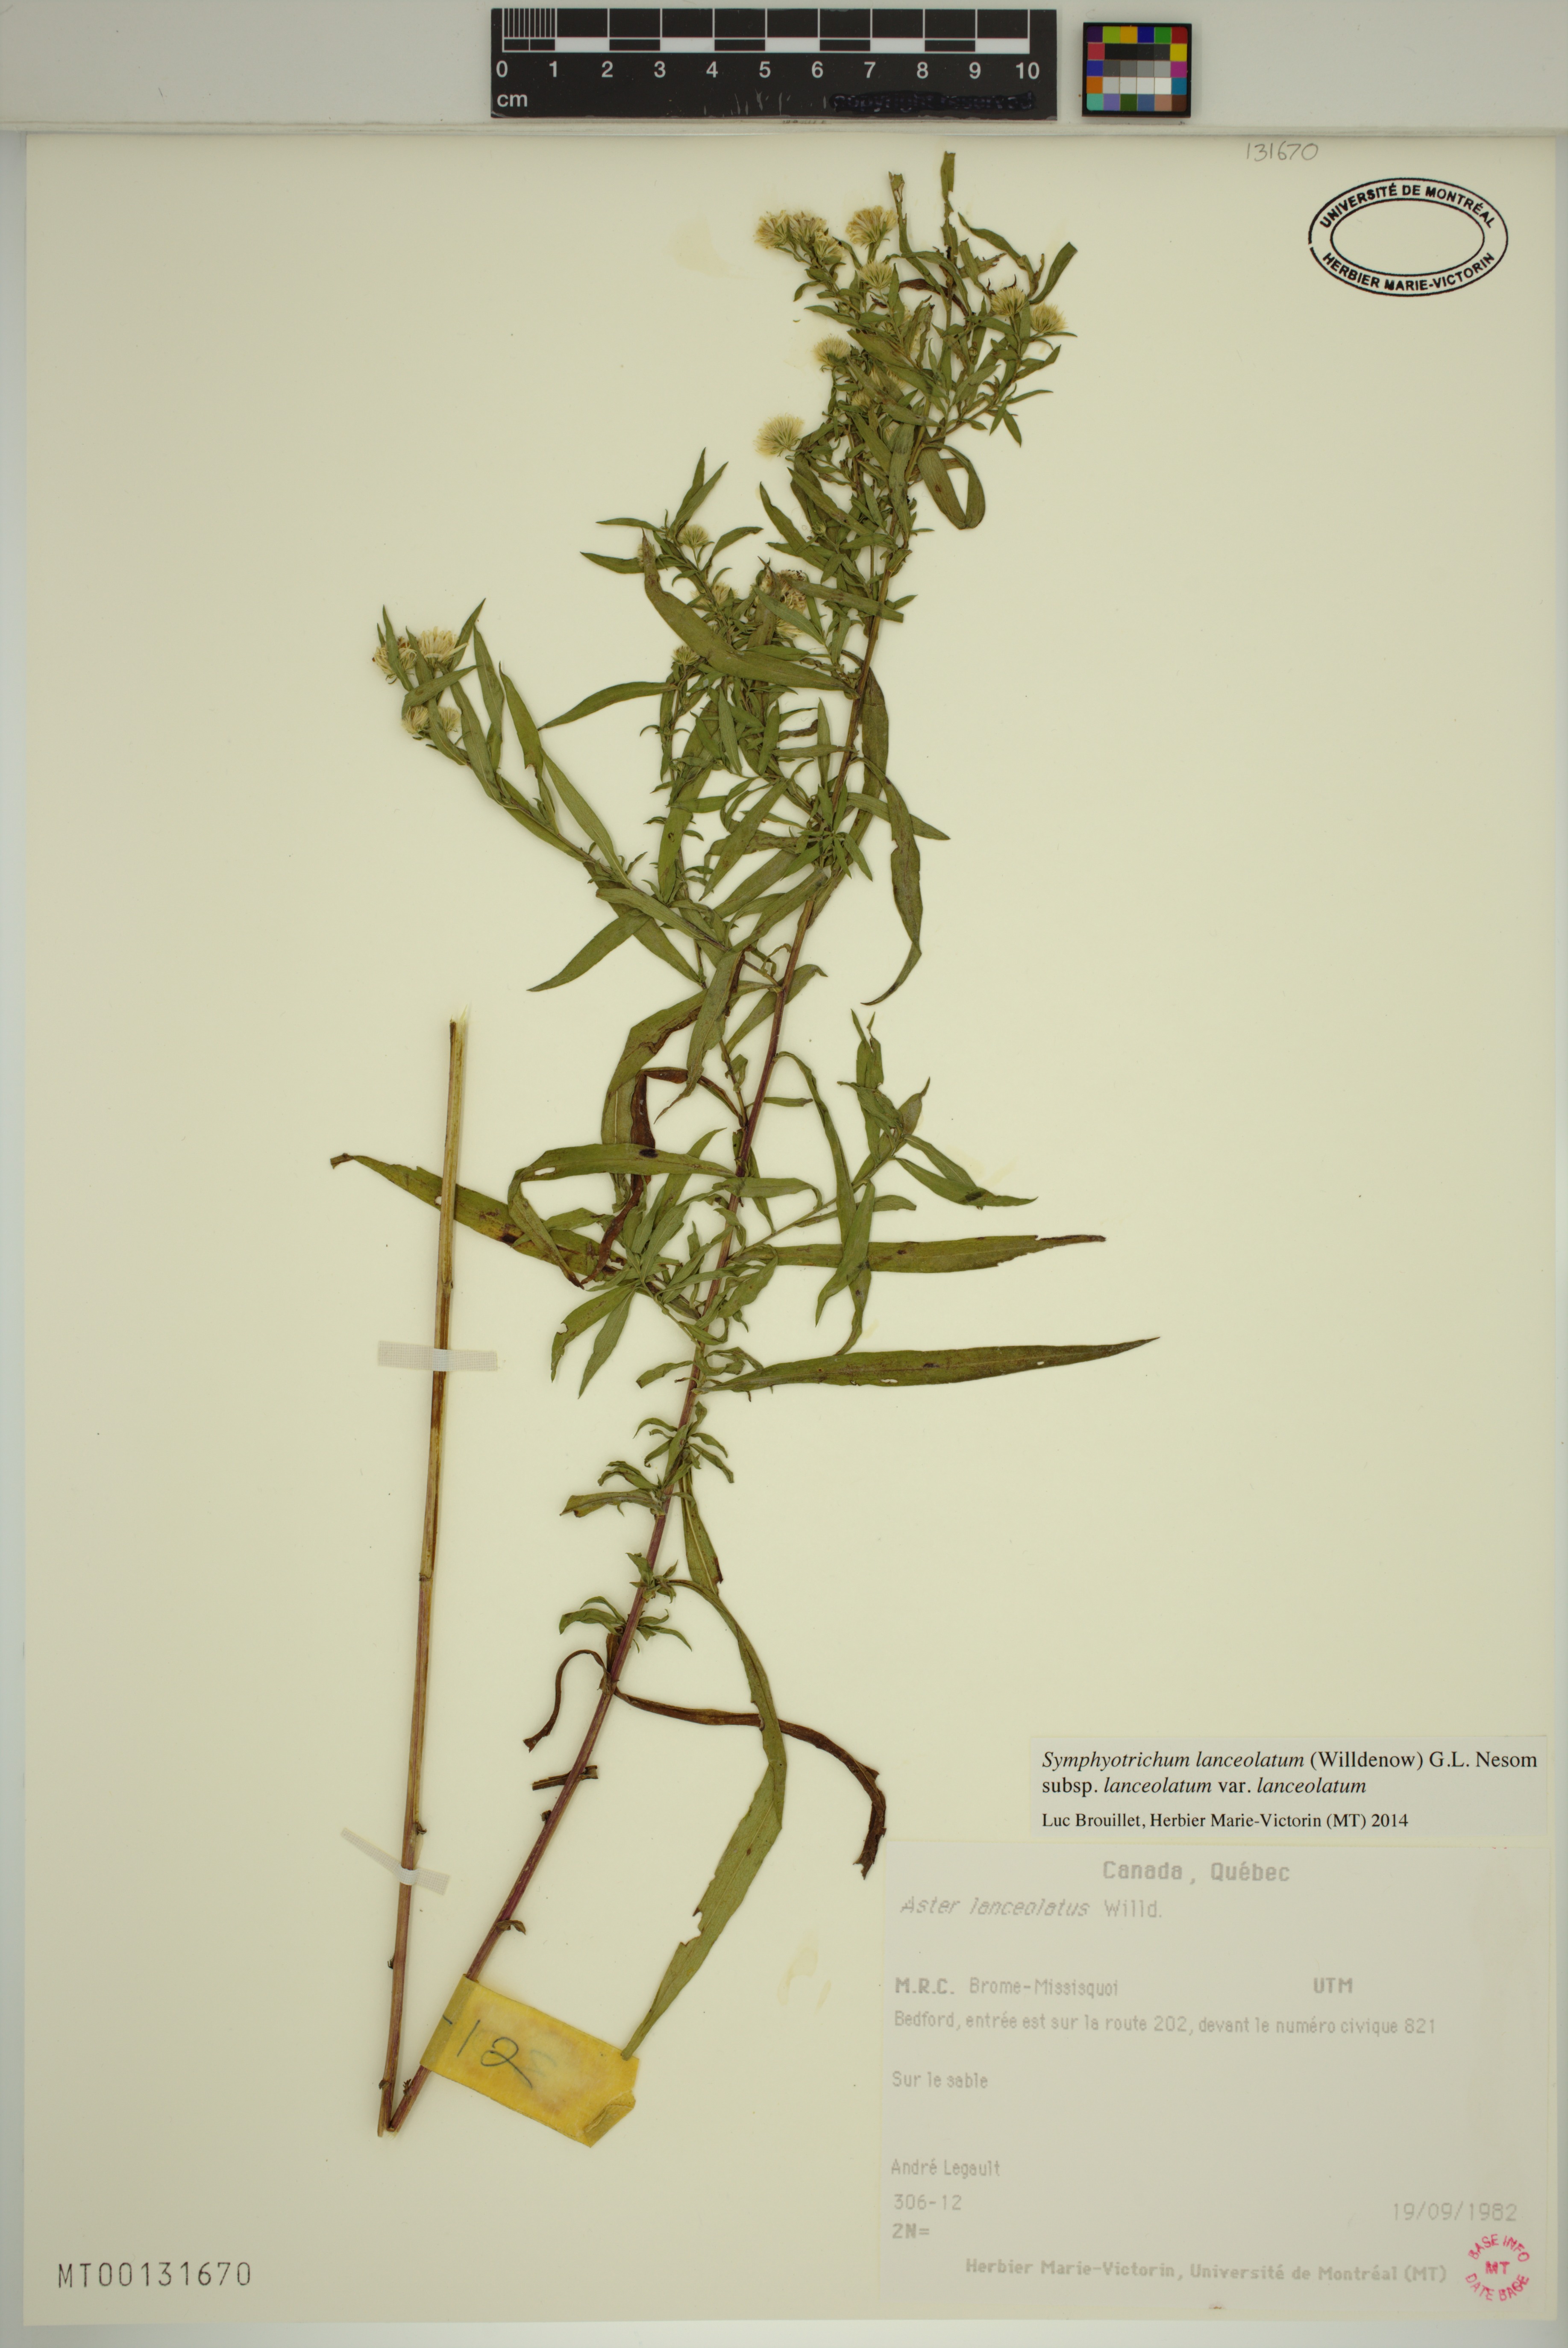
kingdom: Plantae
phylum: Tracheophyta
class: Magnoliopsida
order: Asterales
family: Asteraceae
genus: Symphyotrichum
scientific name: Symphyotrichum lanceolatum
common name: Panicled aster
